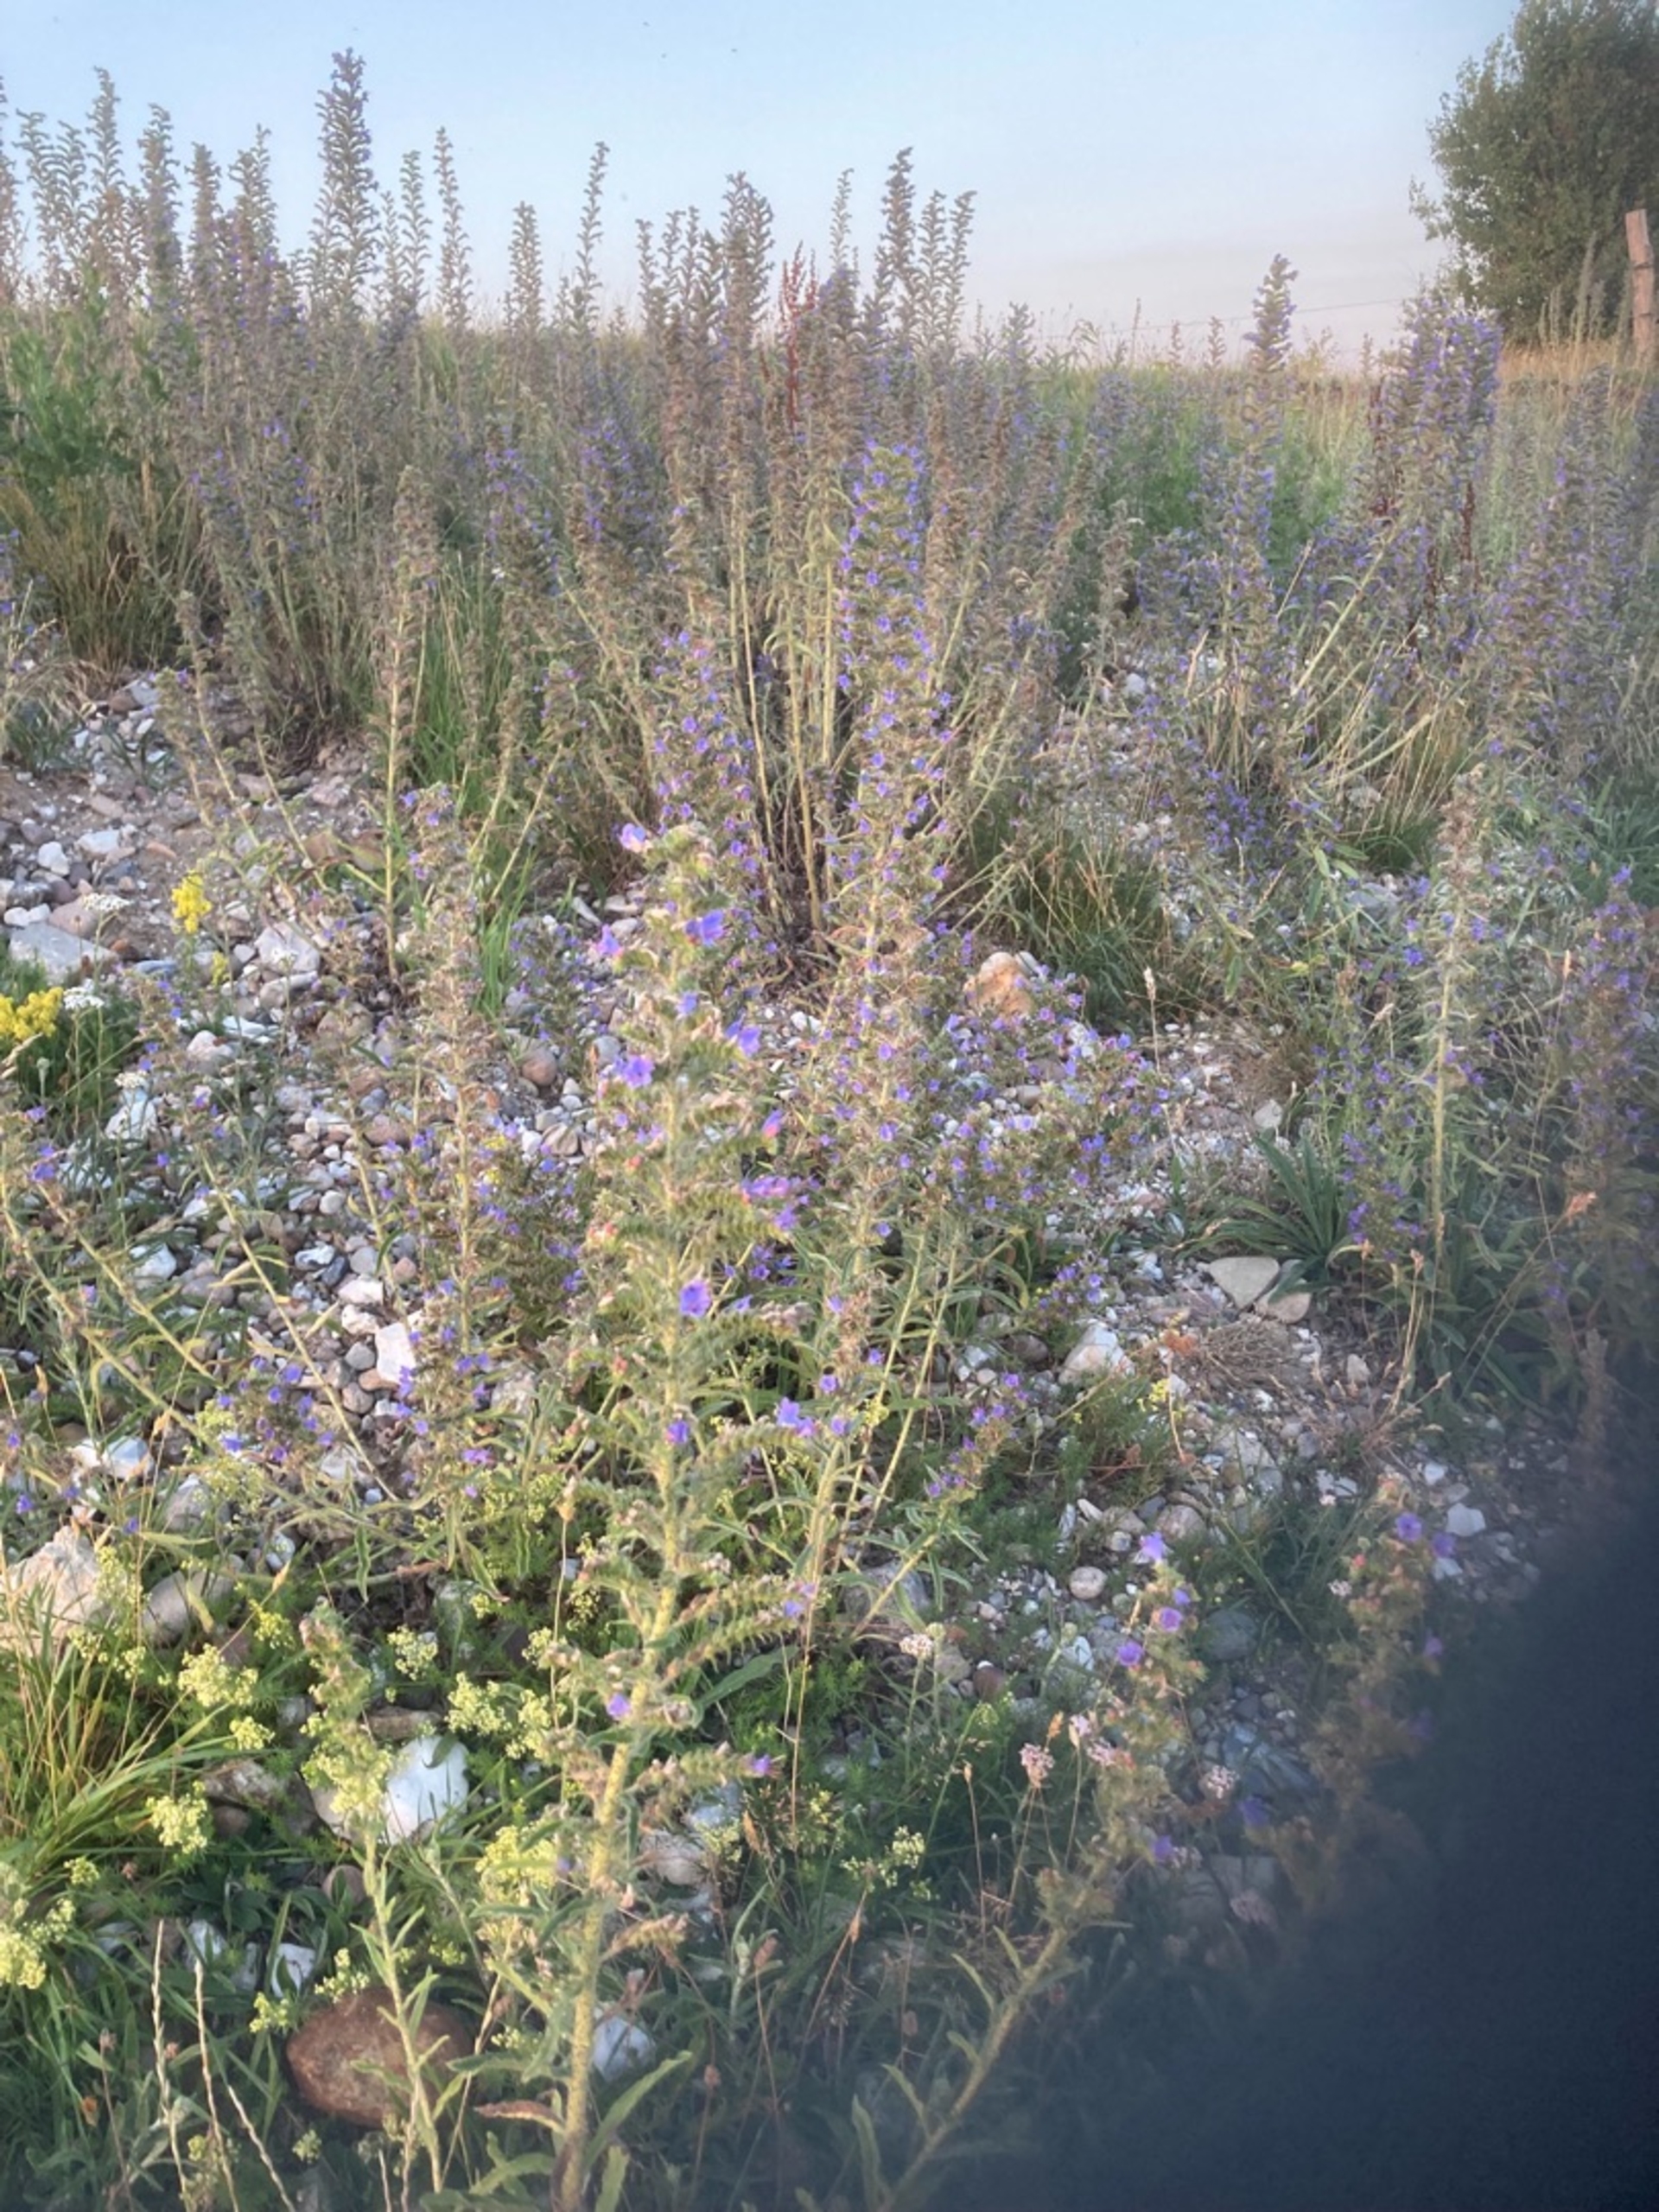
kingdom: Plantae
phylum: Tracheophyta
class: Magnoliopsida
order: Boraginales
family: Boraginaceae
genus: Echium
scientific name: Echium vulgare
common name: Slangehoved
